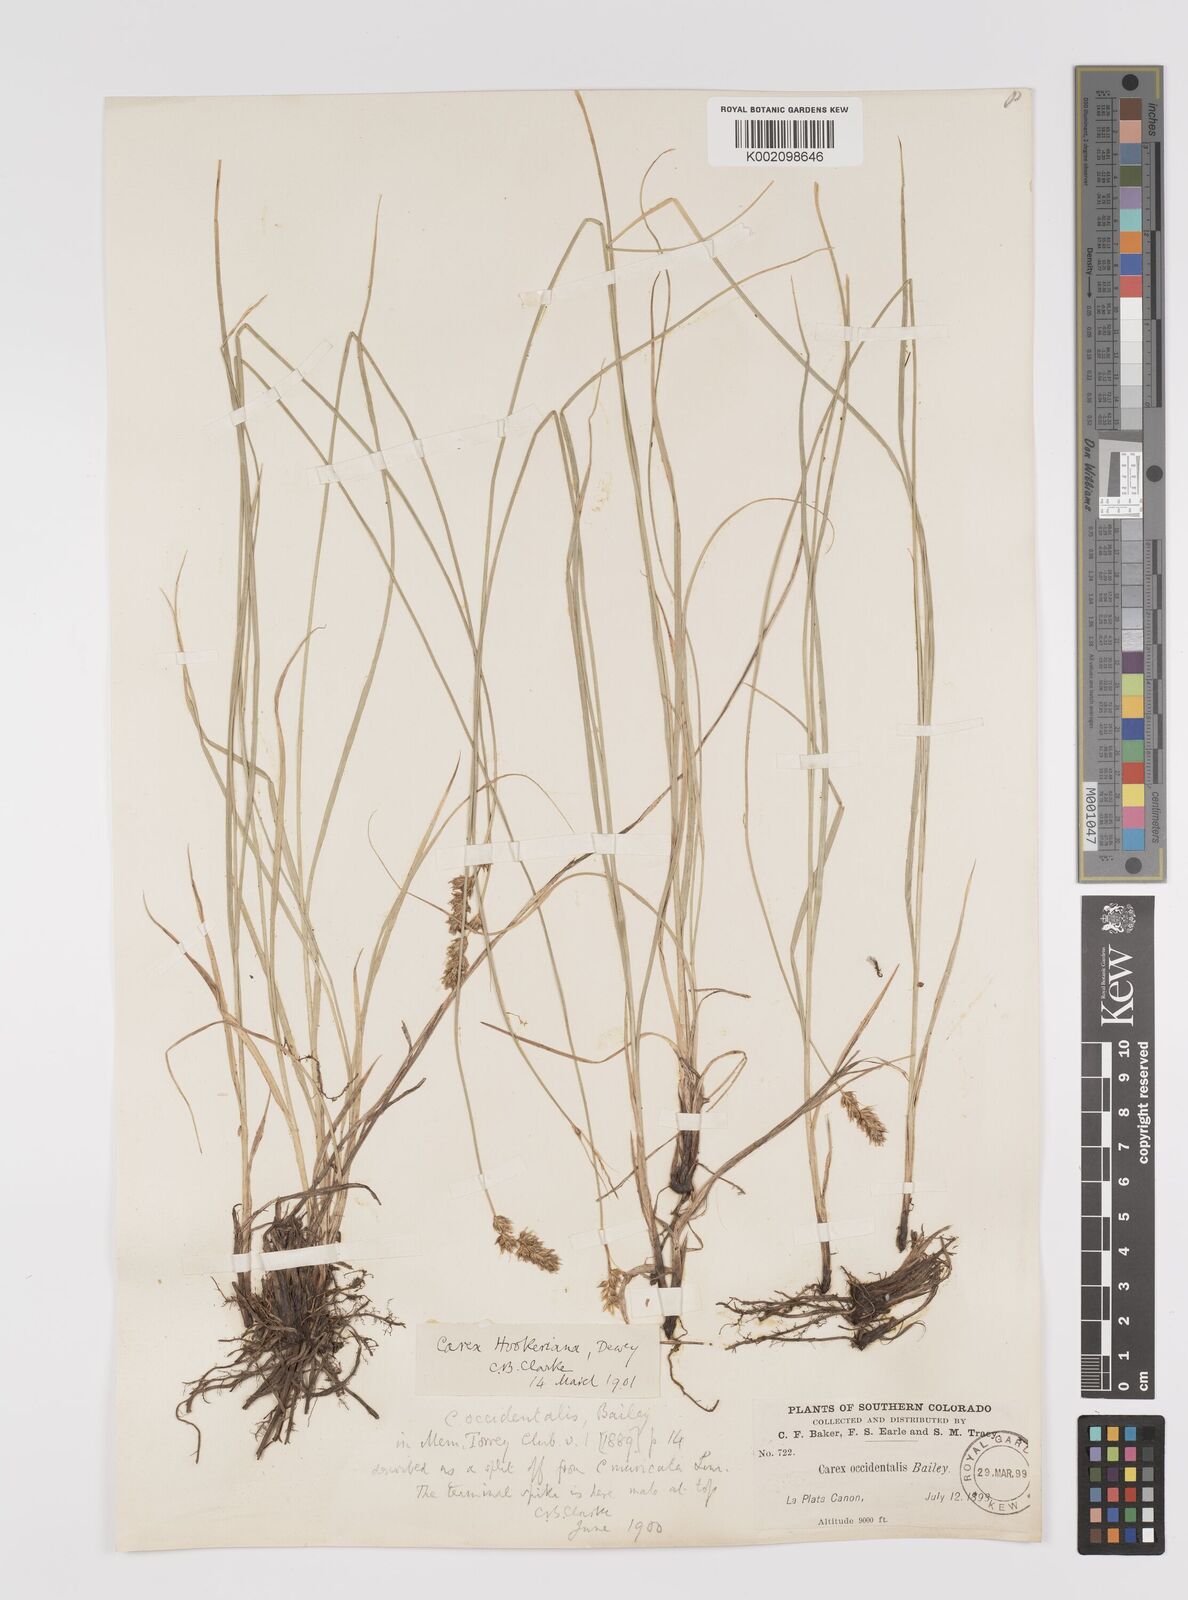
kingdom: Plantae
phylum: Tracheophyta
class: Liliopsida
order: Poales
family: Cyperaceae
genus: Carex
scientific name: Carex occidentalis
